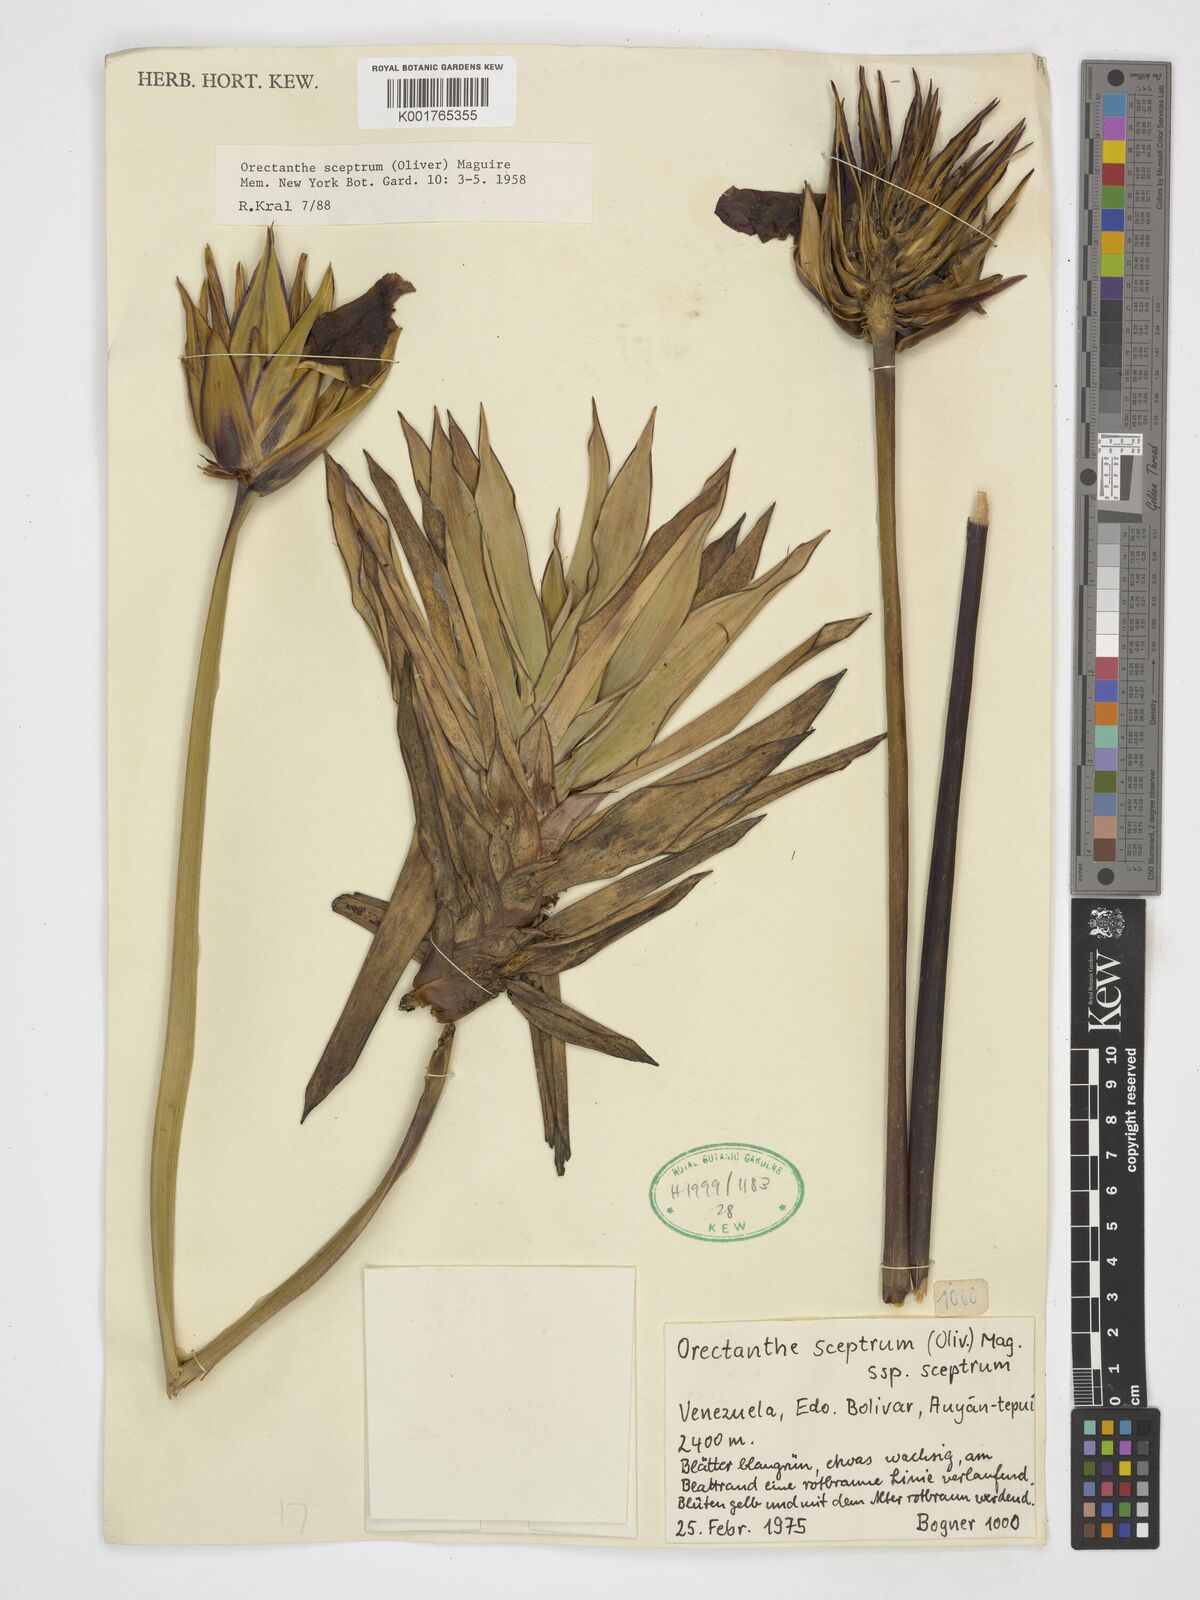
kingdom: Plantae
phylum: Tracheophyta
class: Liliopsida
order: Poales
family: Xyridaceae
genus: Orectanthe
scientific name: Orectanthe sceptrum
